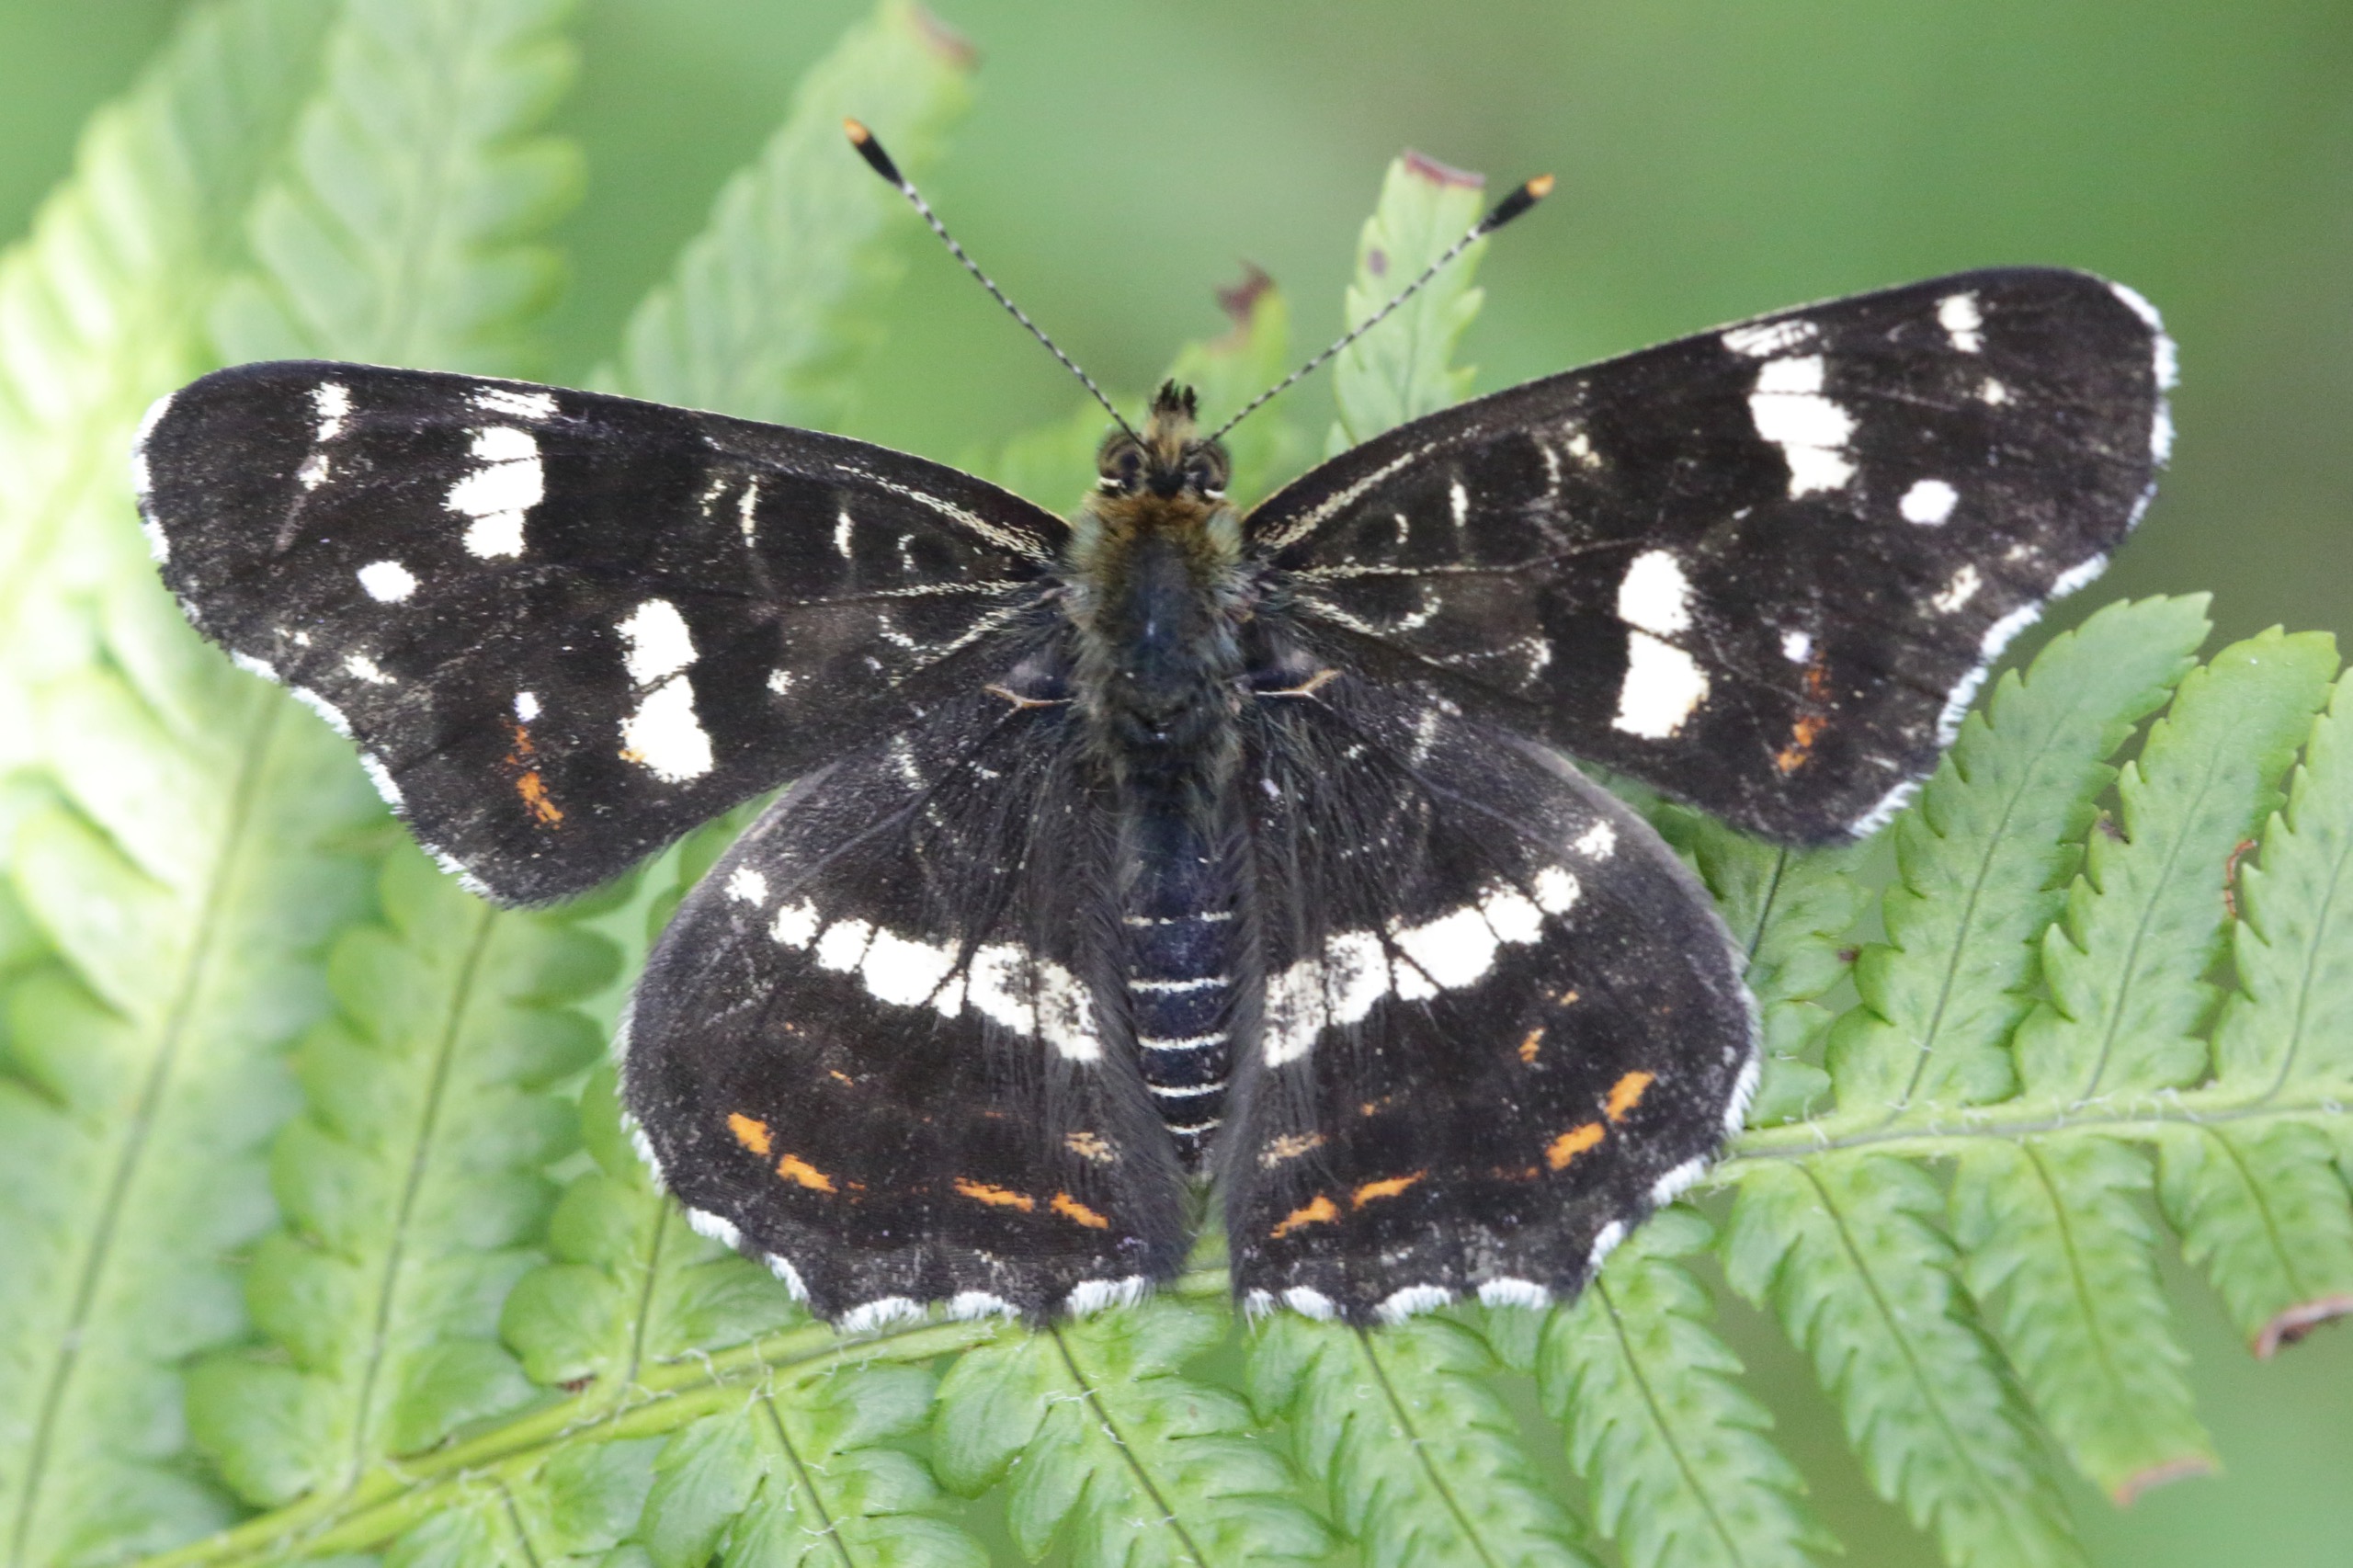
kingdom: Animalia
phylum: Arthropoda
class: Insecta
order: Lepidoptera
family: Nymphalidae
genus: Araschnia
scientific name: Araschnia levana
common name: Nældesommerfugl
